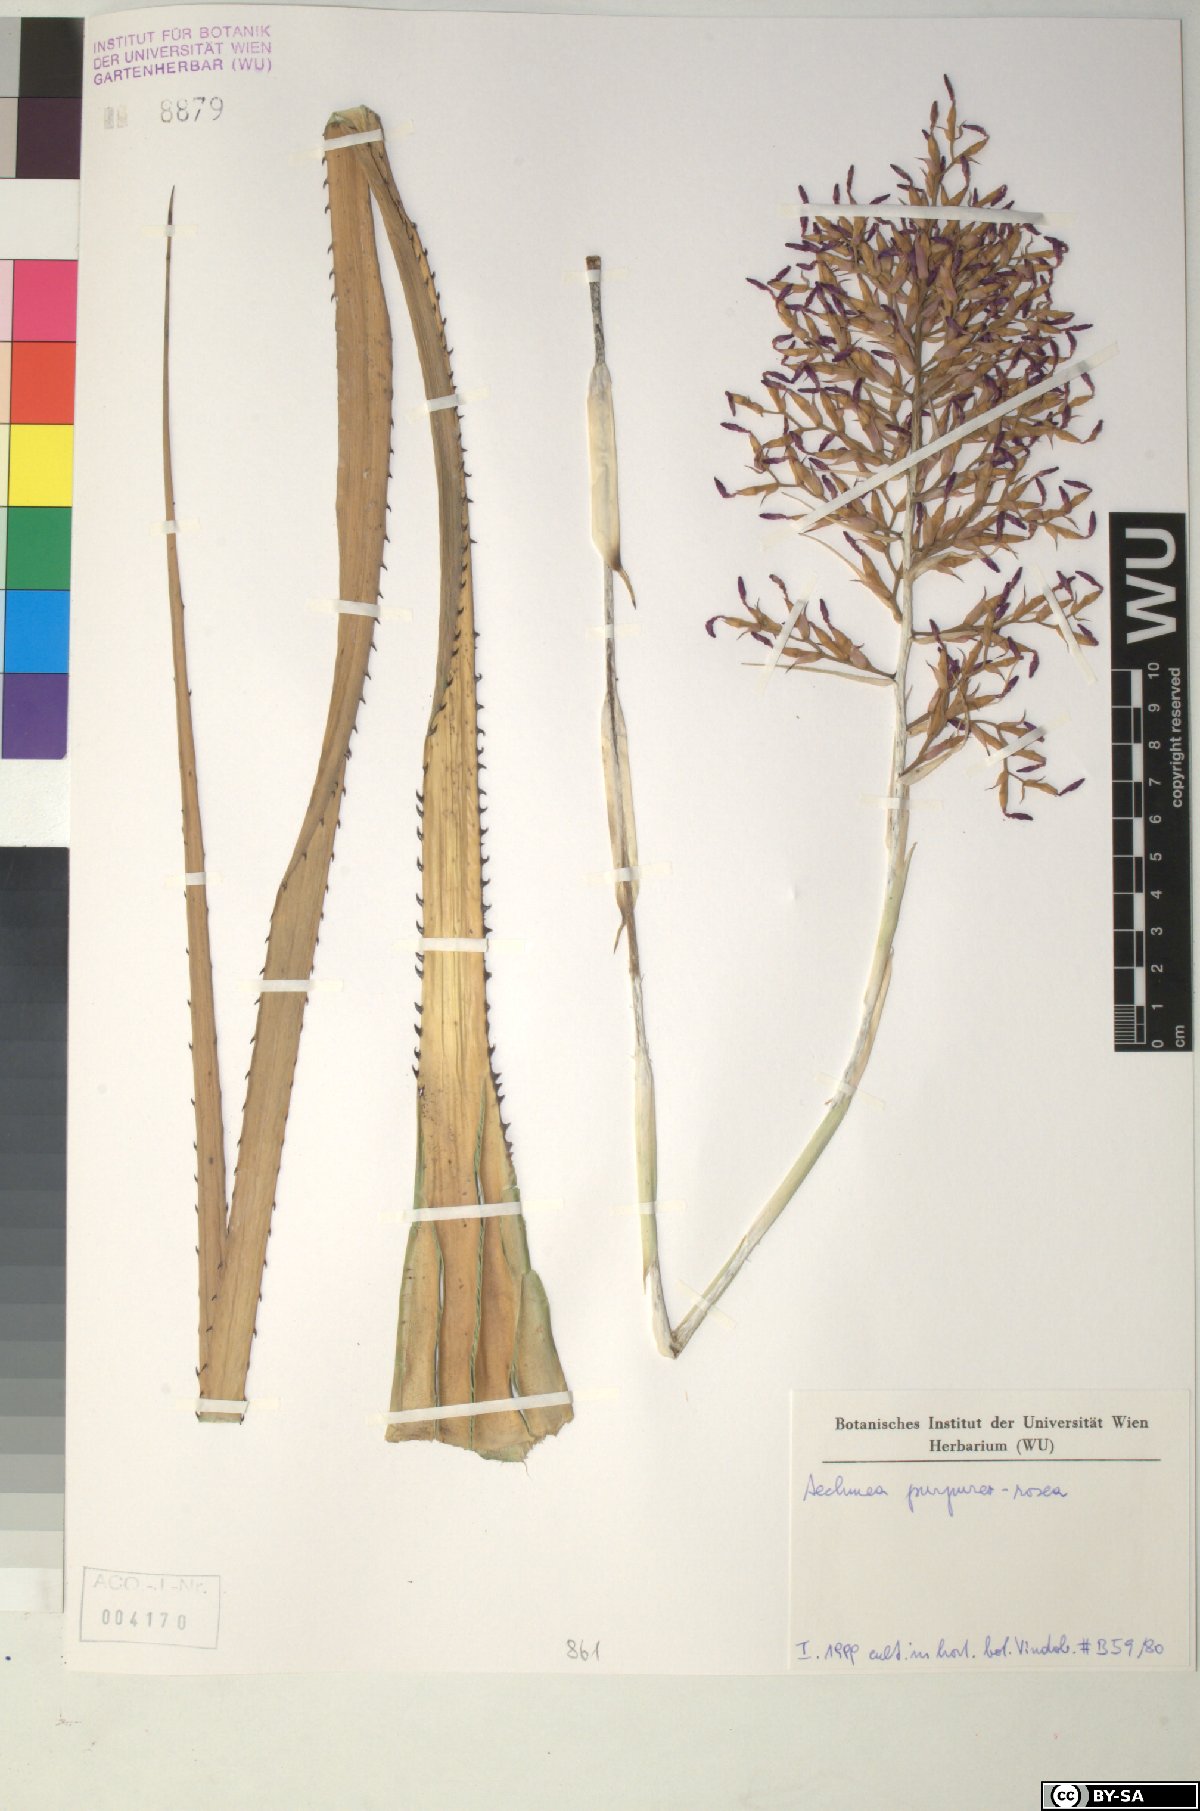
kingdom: Plantae
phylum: Tracheophyta
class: Liliopsida
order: Poales
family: Bromeliaceae
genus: Aechmea
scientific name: Aechmea
